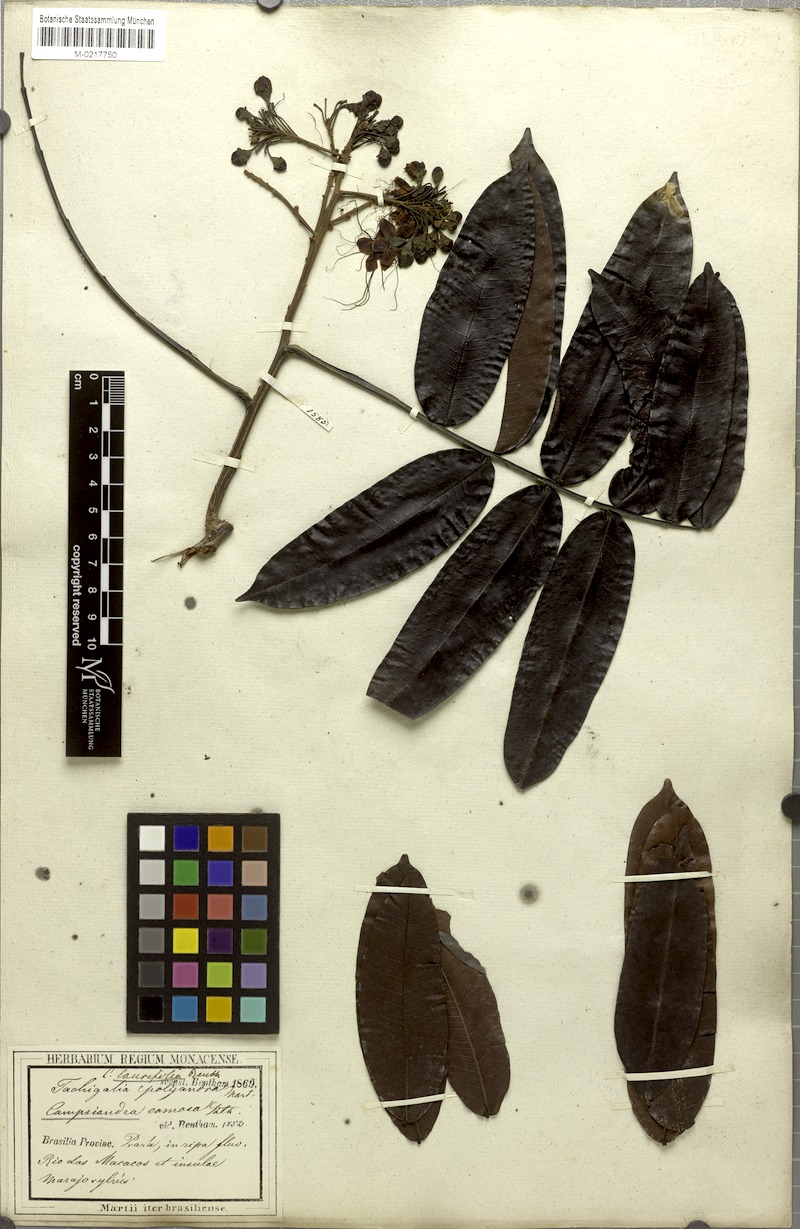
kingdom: Plantae
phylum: Tracheophyta
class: Magnoliopsida
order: Fabales
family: Fabaceae
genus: Campsiandra
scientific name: Campsiandra laurifolia
